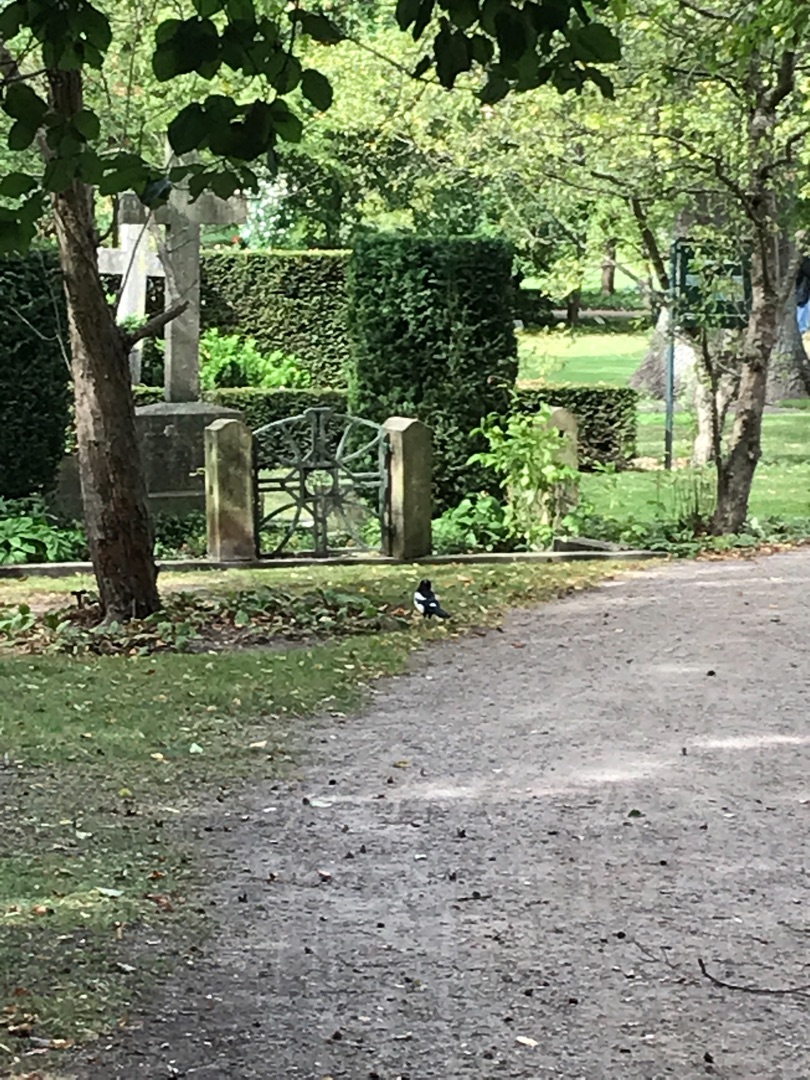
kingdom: Animalia
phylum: Chordata
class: Aves
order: Passeriformes
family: Corvidae
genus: Pica
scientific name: Pica pica
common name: Husskade
